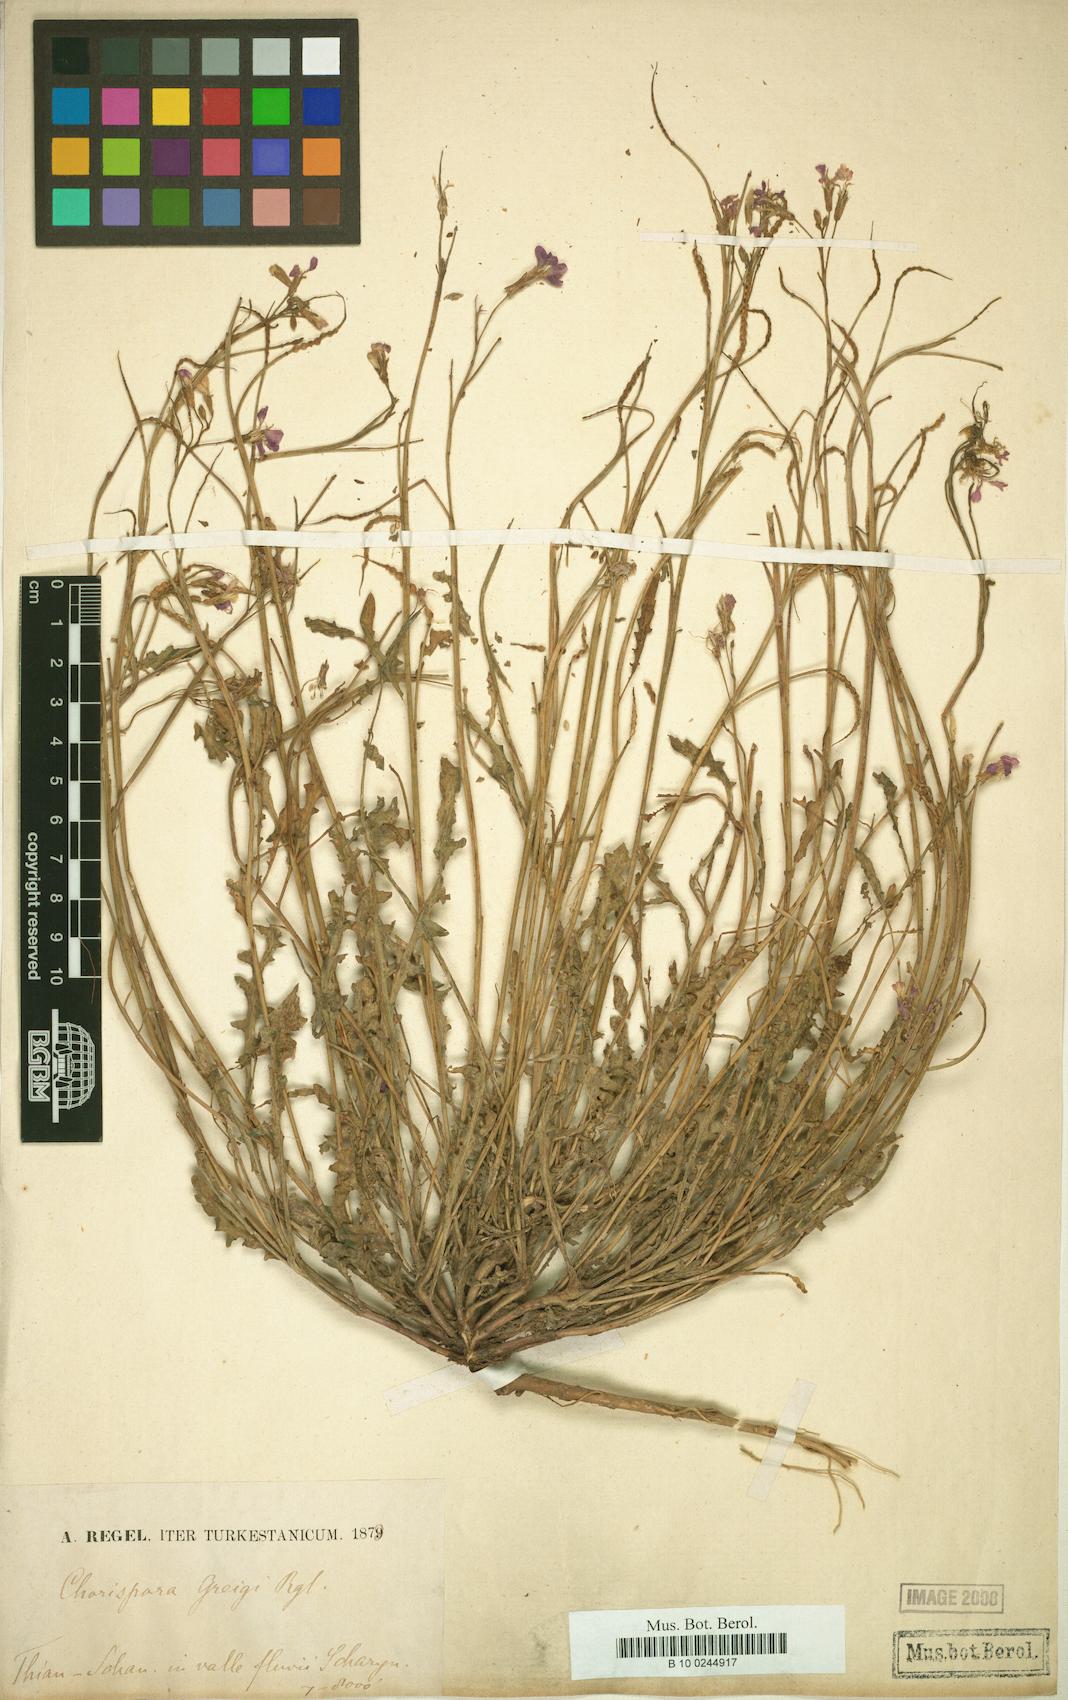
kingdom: Plantae
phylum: Tracheophyta
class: Magnoliopsida
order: Brassicales
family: Brassicaceae
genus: Chorispora
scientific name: Chorispora greigii
